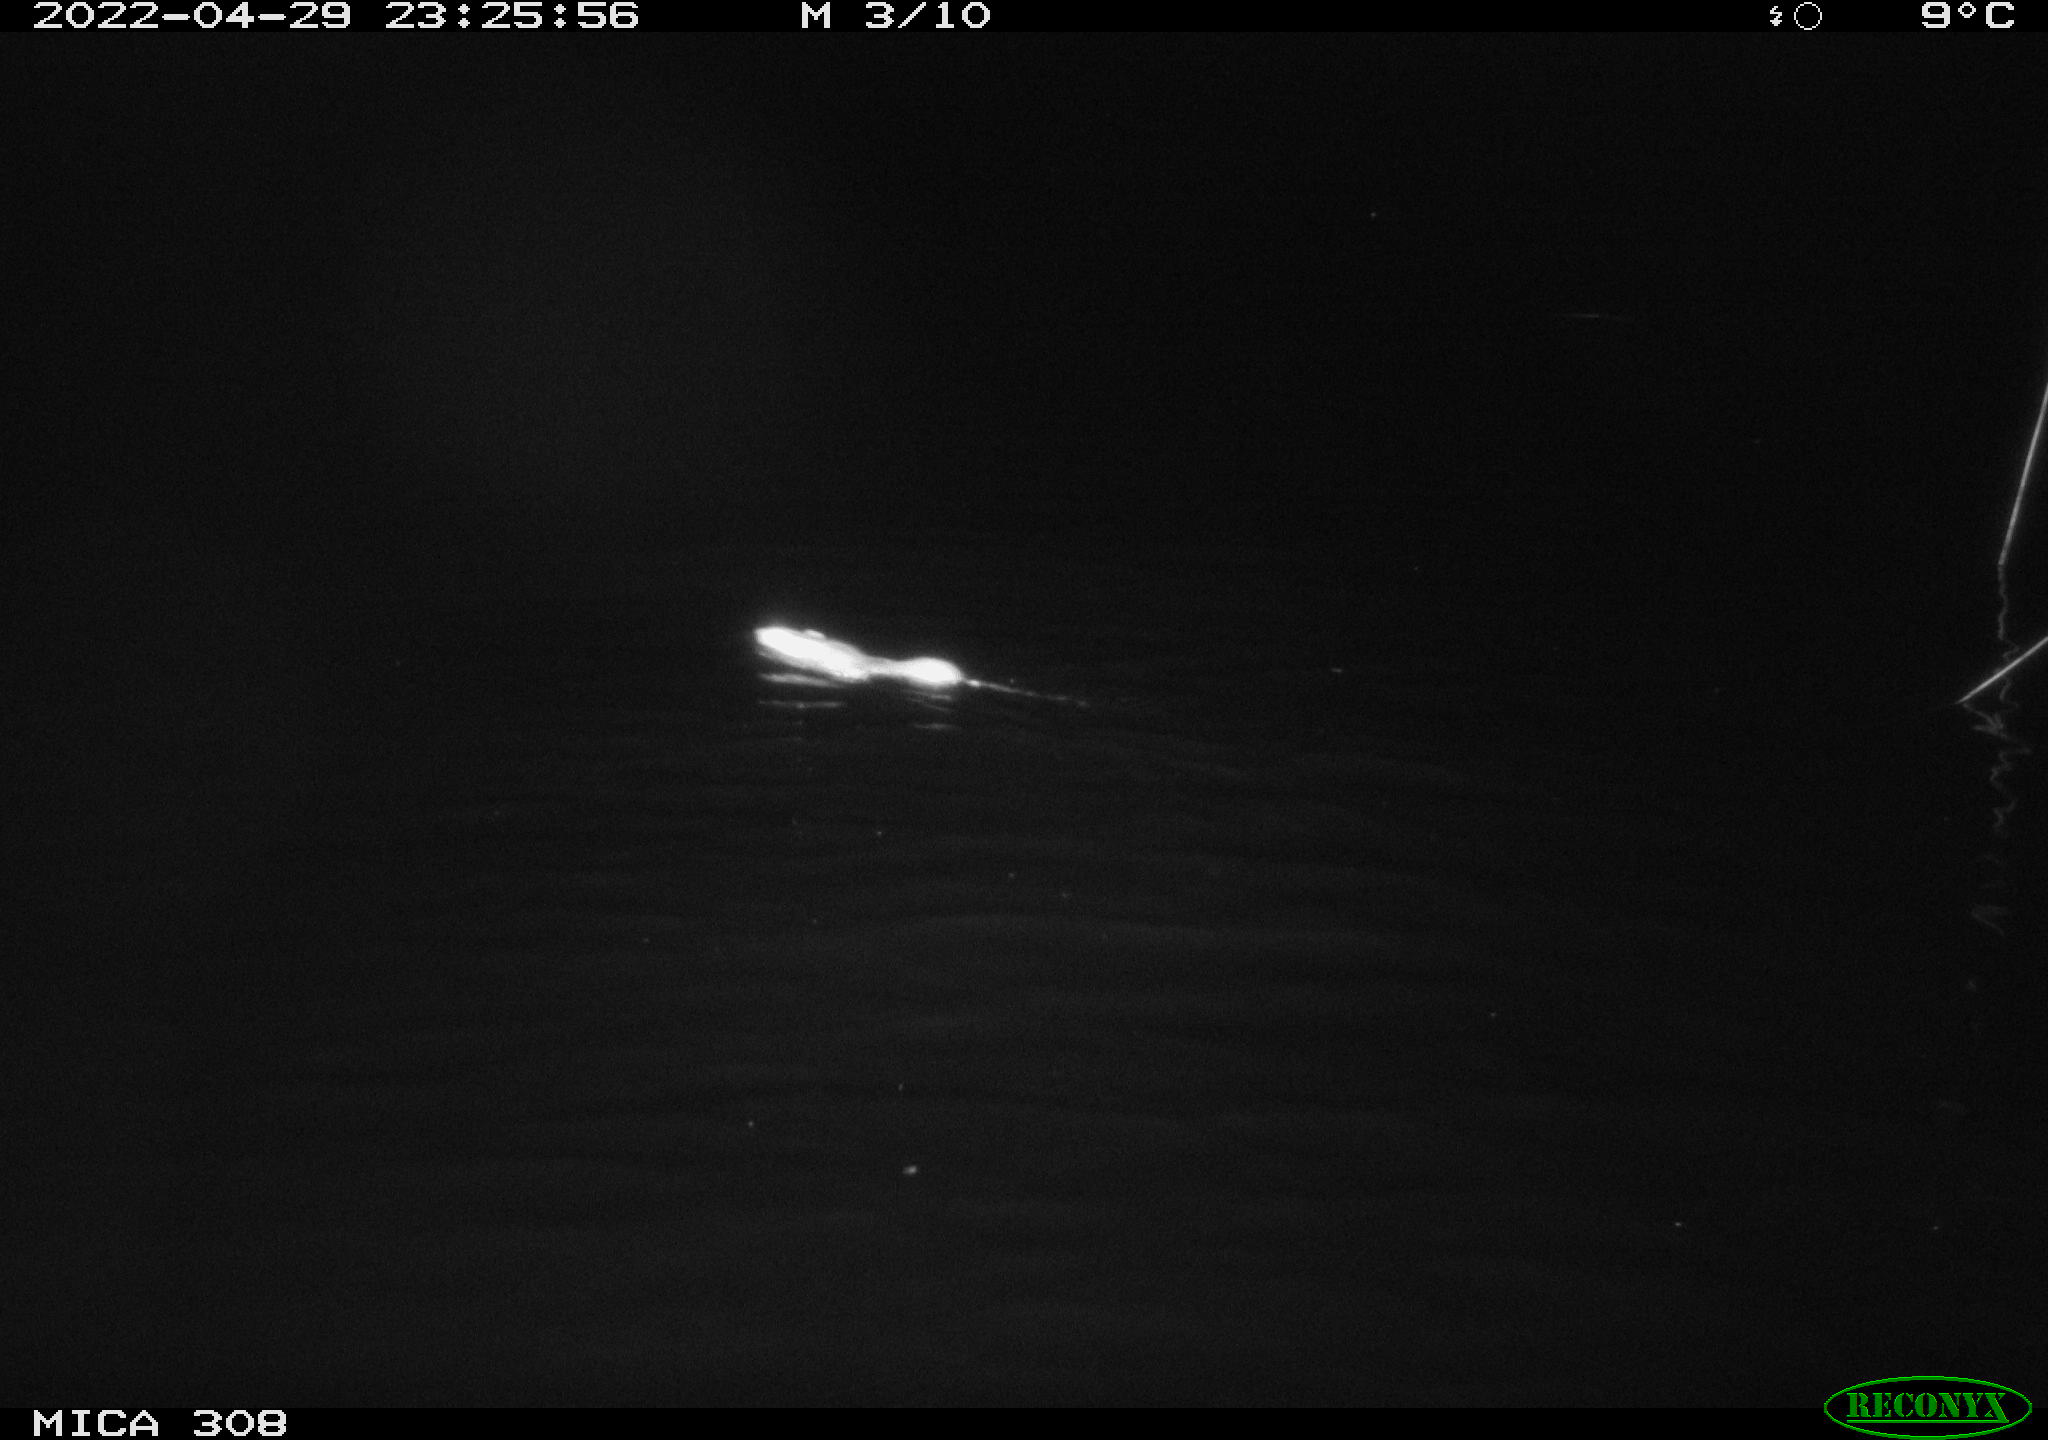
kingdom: Animalia
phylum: Chordata
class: Mammalia
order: Rodentia
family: Muridae
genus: Rattus
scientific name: Rattus norvegicus
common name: Brown rat
